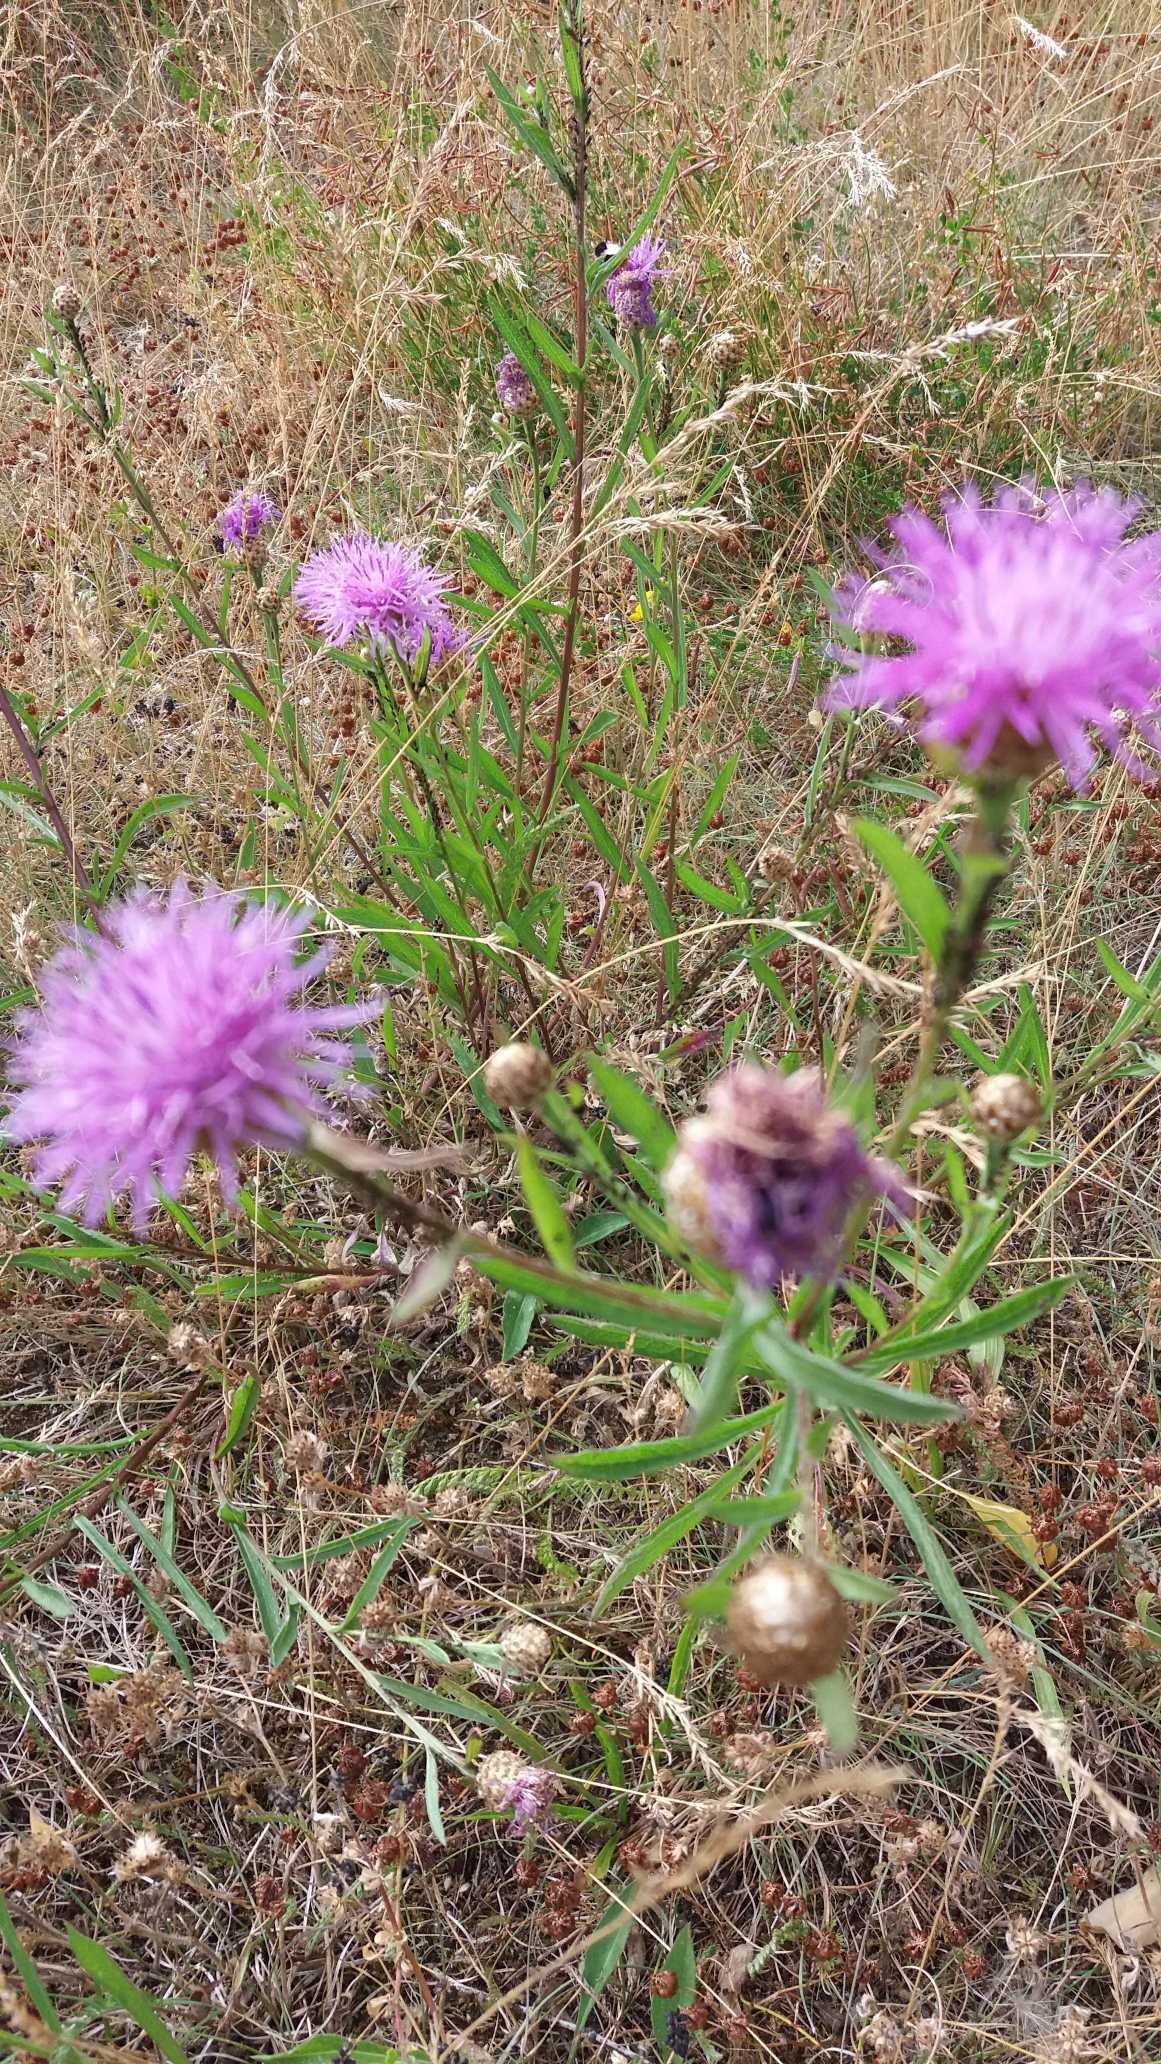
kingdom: Plantae
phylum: Tracheophyta
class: Magnoliopsida
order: Asterales
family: Asteraceae
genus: Centaurea
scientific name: Centaurea jacea
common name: Almindelig knopurt
